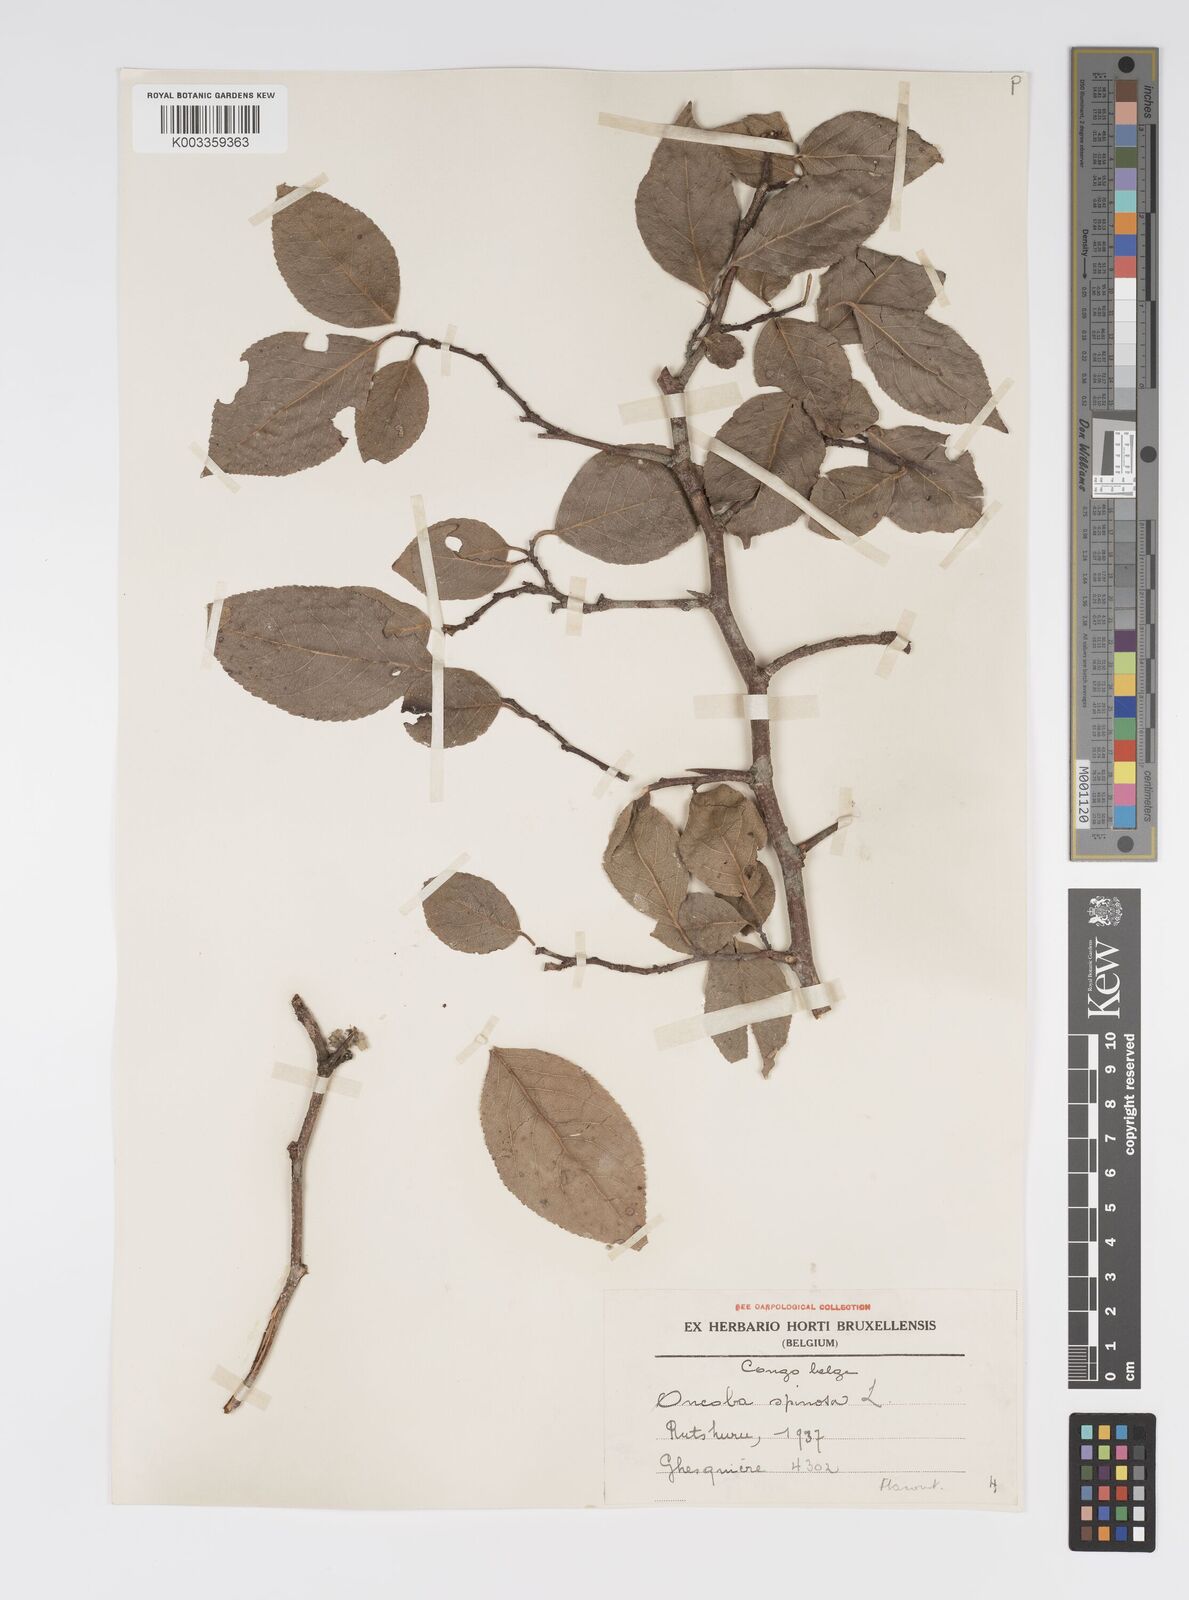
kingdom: Plantae
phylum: Tracheophyta
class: Magnoliopsida
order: Malpighiales
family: Salicaceae
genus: Oncoba
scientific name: Oncoba spinosa
